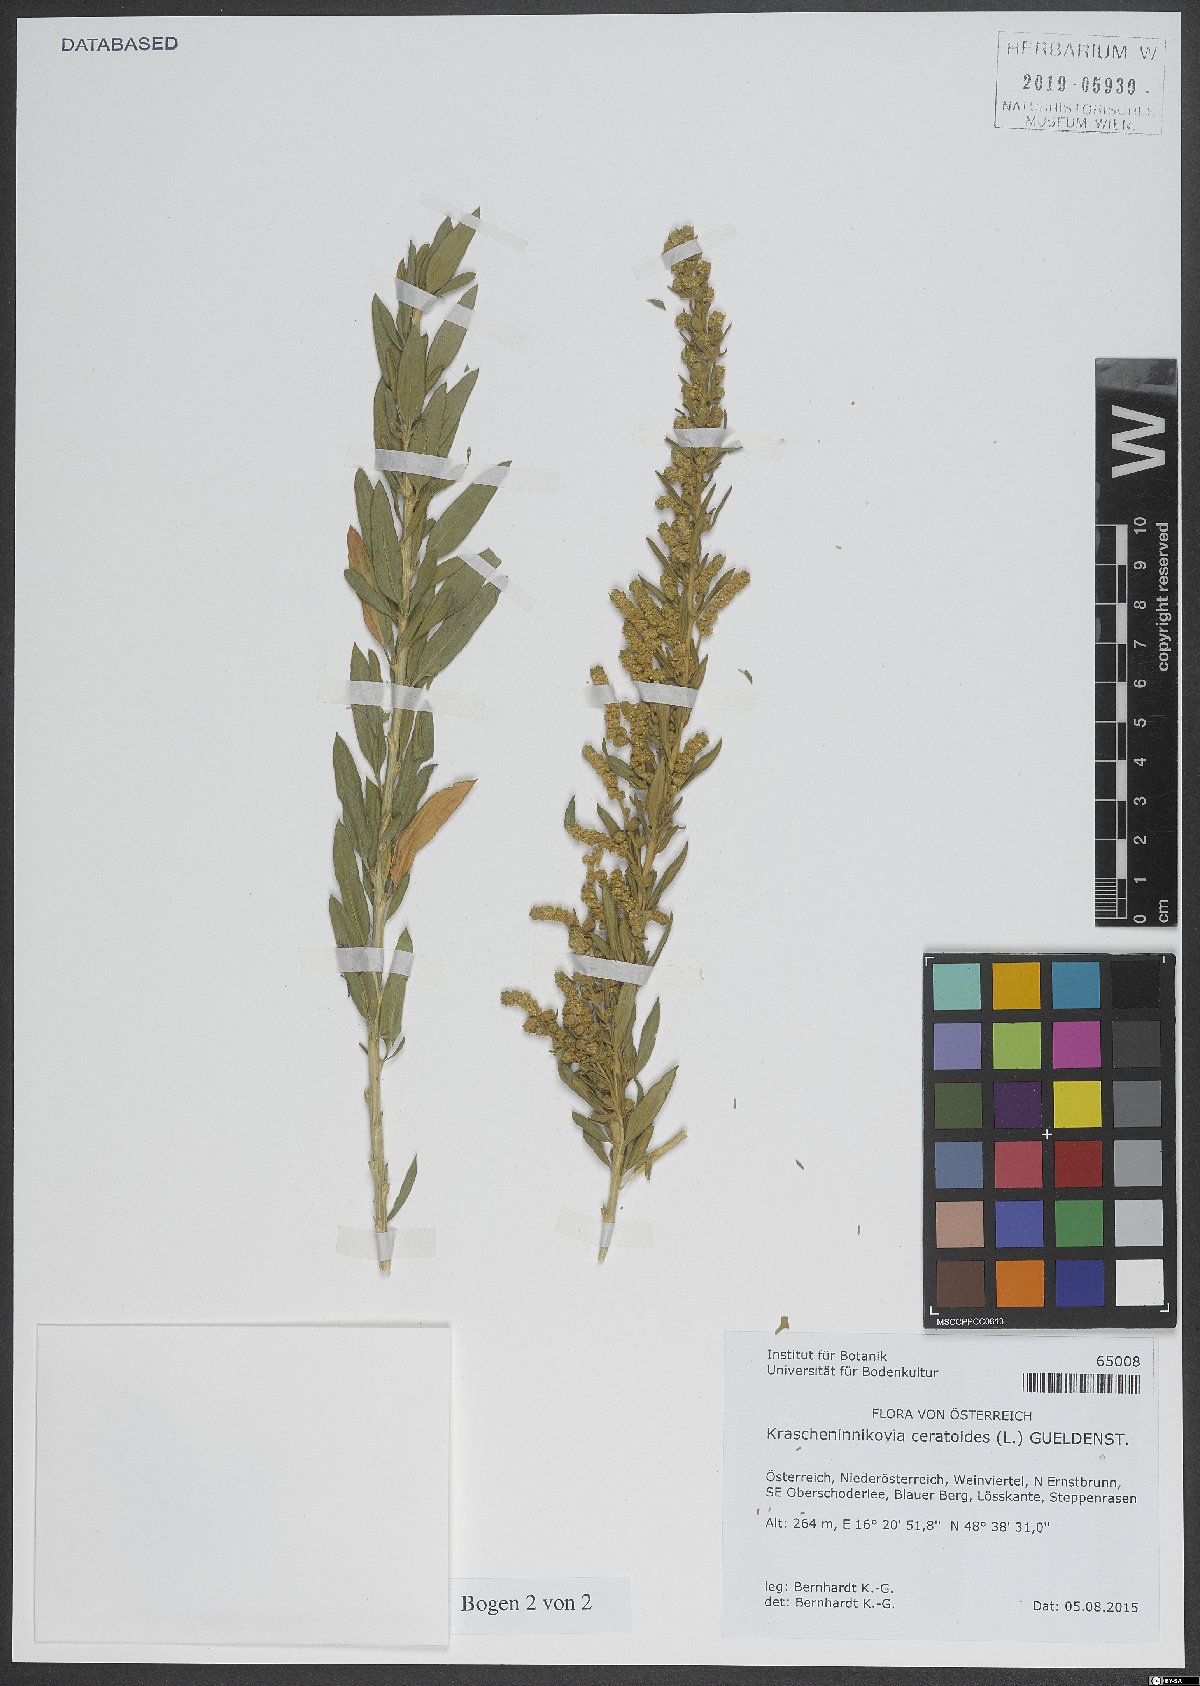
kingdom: Plantae
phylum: Tracheophyta
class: Magnoliopsida
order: Caryophyllales
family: Amaranthaceae
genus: Krascheninnikovia
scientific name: Krascheninnikovia ceratoides
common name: Pamirian winterfat
